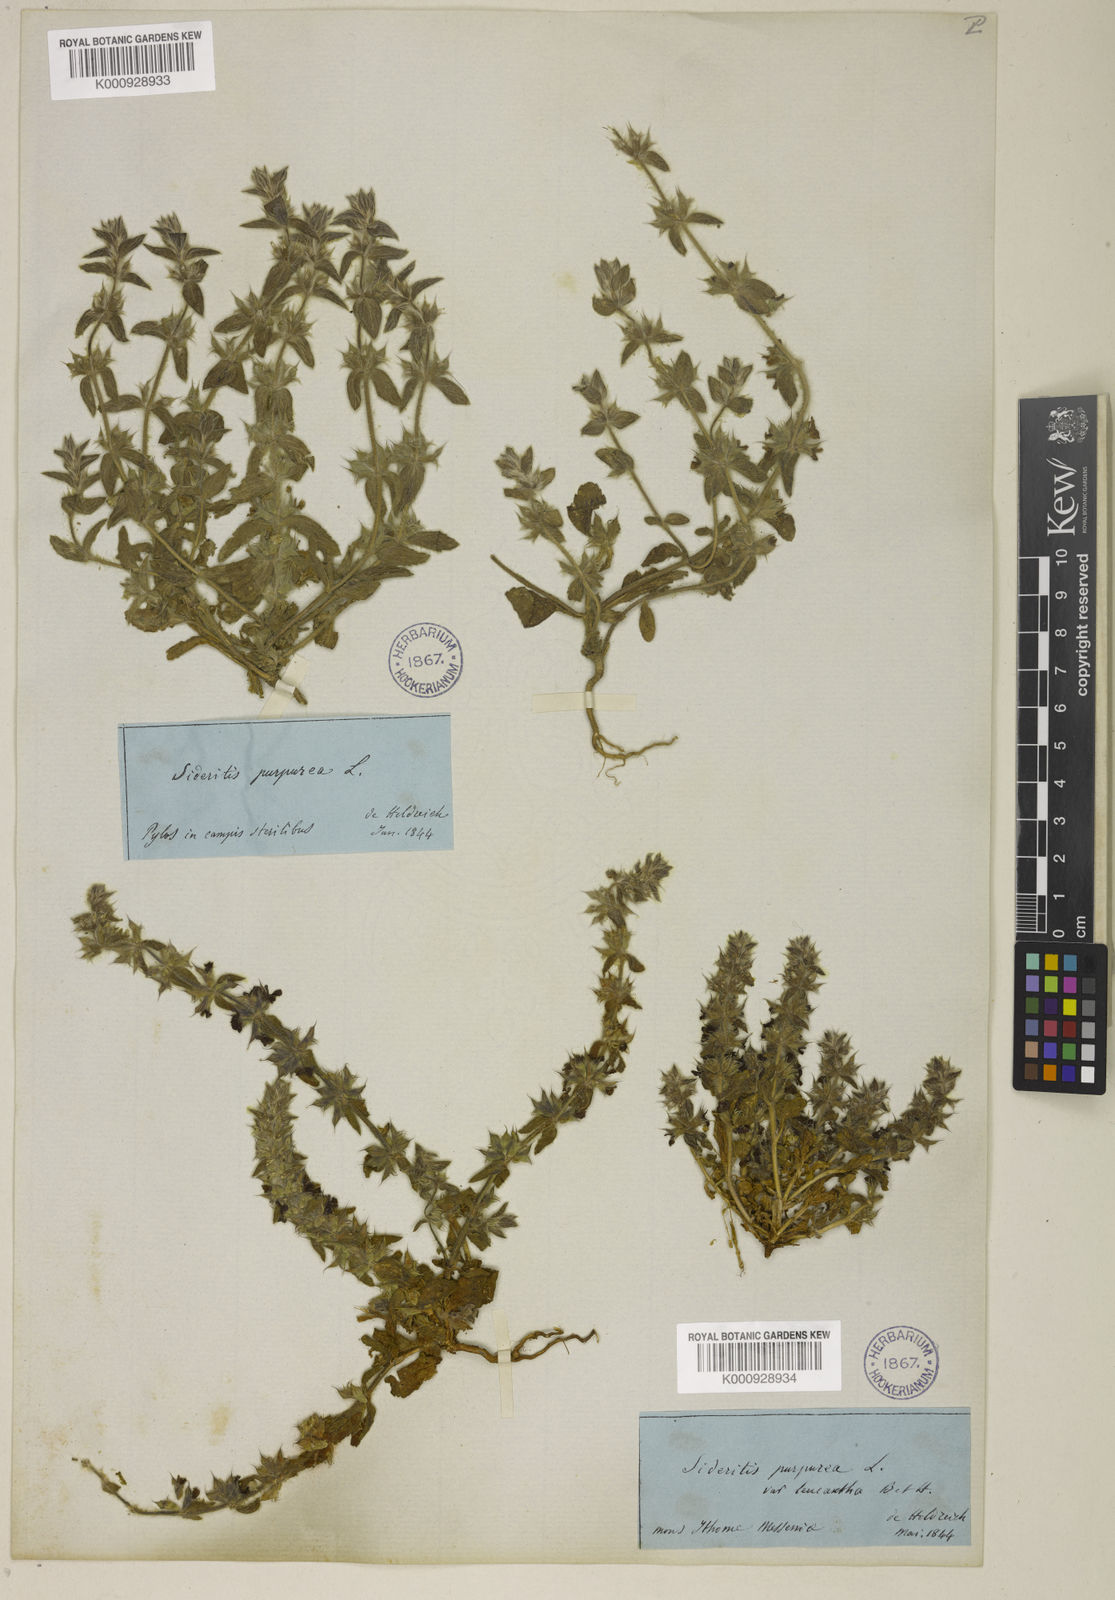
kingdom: Plantae
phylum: Tracheophyta
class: Magnoliopsida
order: Lamiales
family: Lamiaceae
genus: Sideritis
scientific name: Sideritis romana
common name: Simplebeak ironwort
